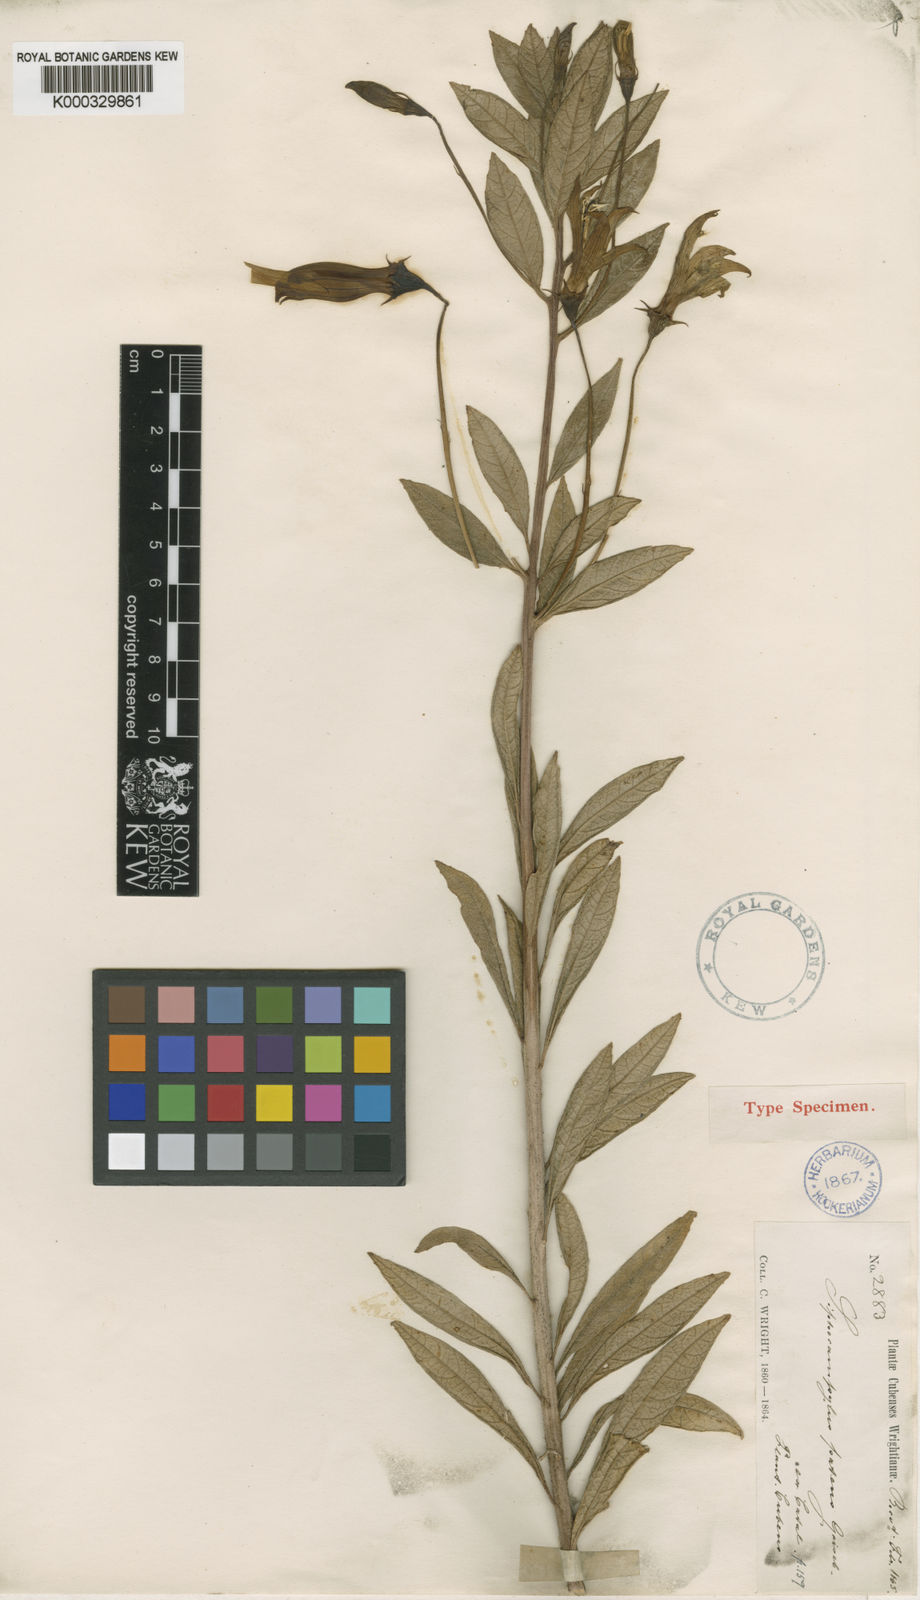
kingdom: Plantae
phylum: Tracheophyta
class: Magnoliopsida
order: Asterales
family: Campanulaceae
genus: Siphocampylus
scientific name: Siphocampylus patens
